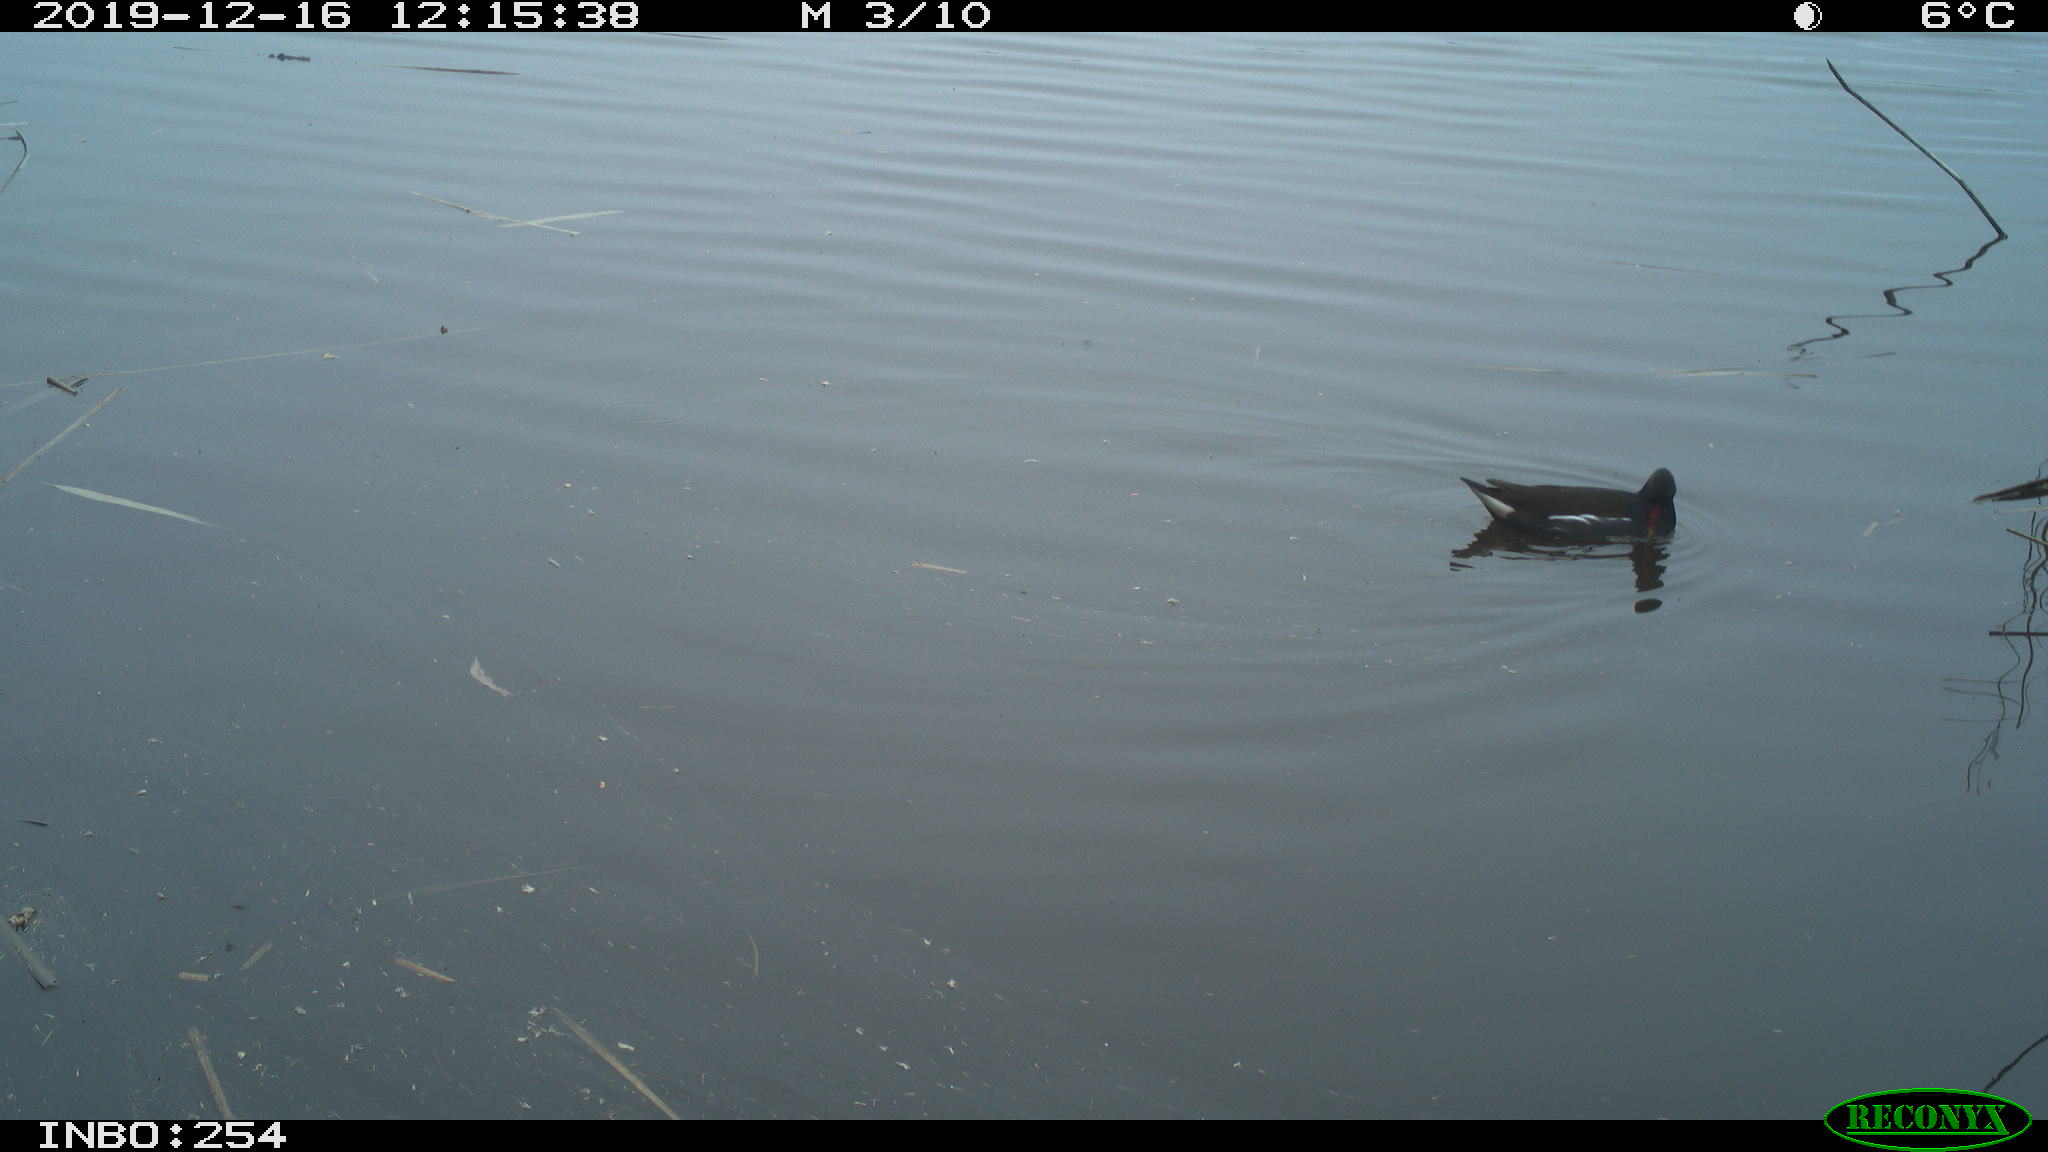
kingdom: Animalia
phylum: Chordata
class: Aves
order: Gruiformes
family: Rallidae
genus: Gallinula
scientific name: Gallinula chloropus
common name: Common moorhen
